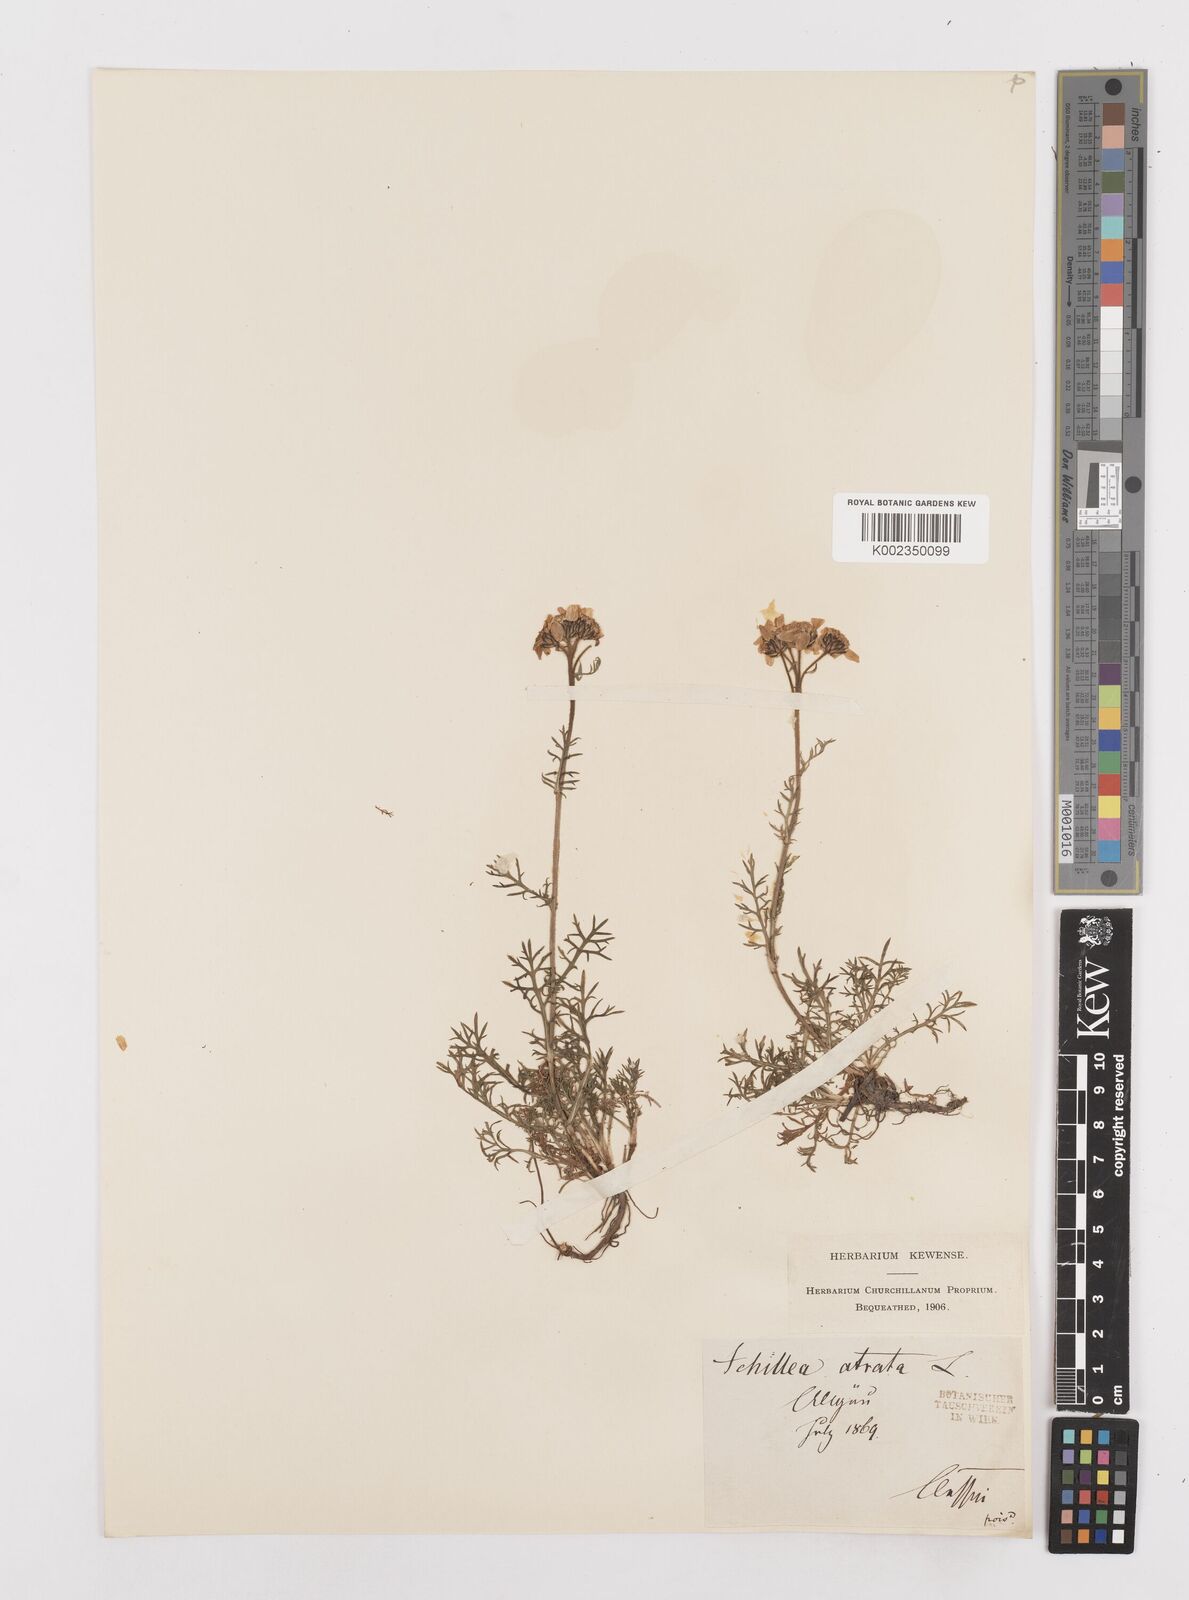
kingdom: Plantae
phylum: Tracheophyta
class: Magnoliopsida
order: Asterales
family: Asteraceae
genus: Achillea
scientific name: Achillea atrata
